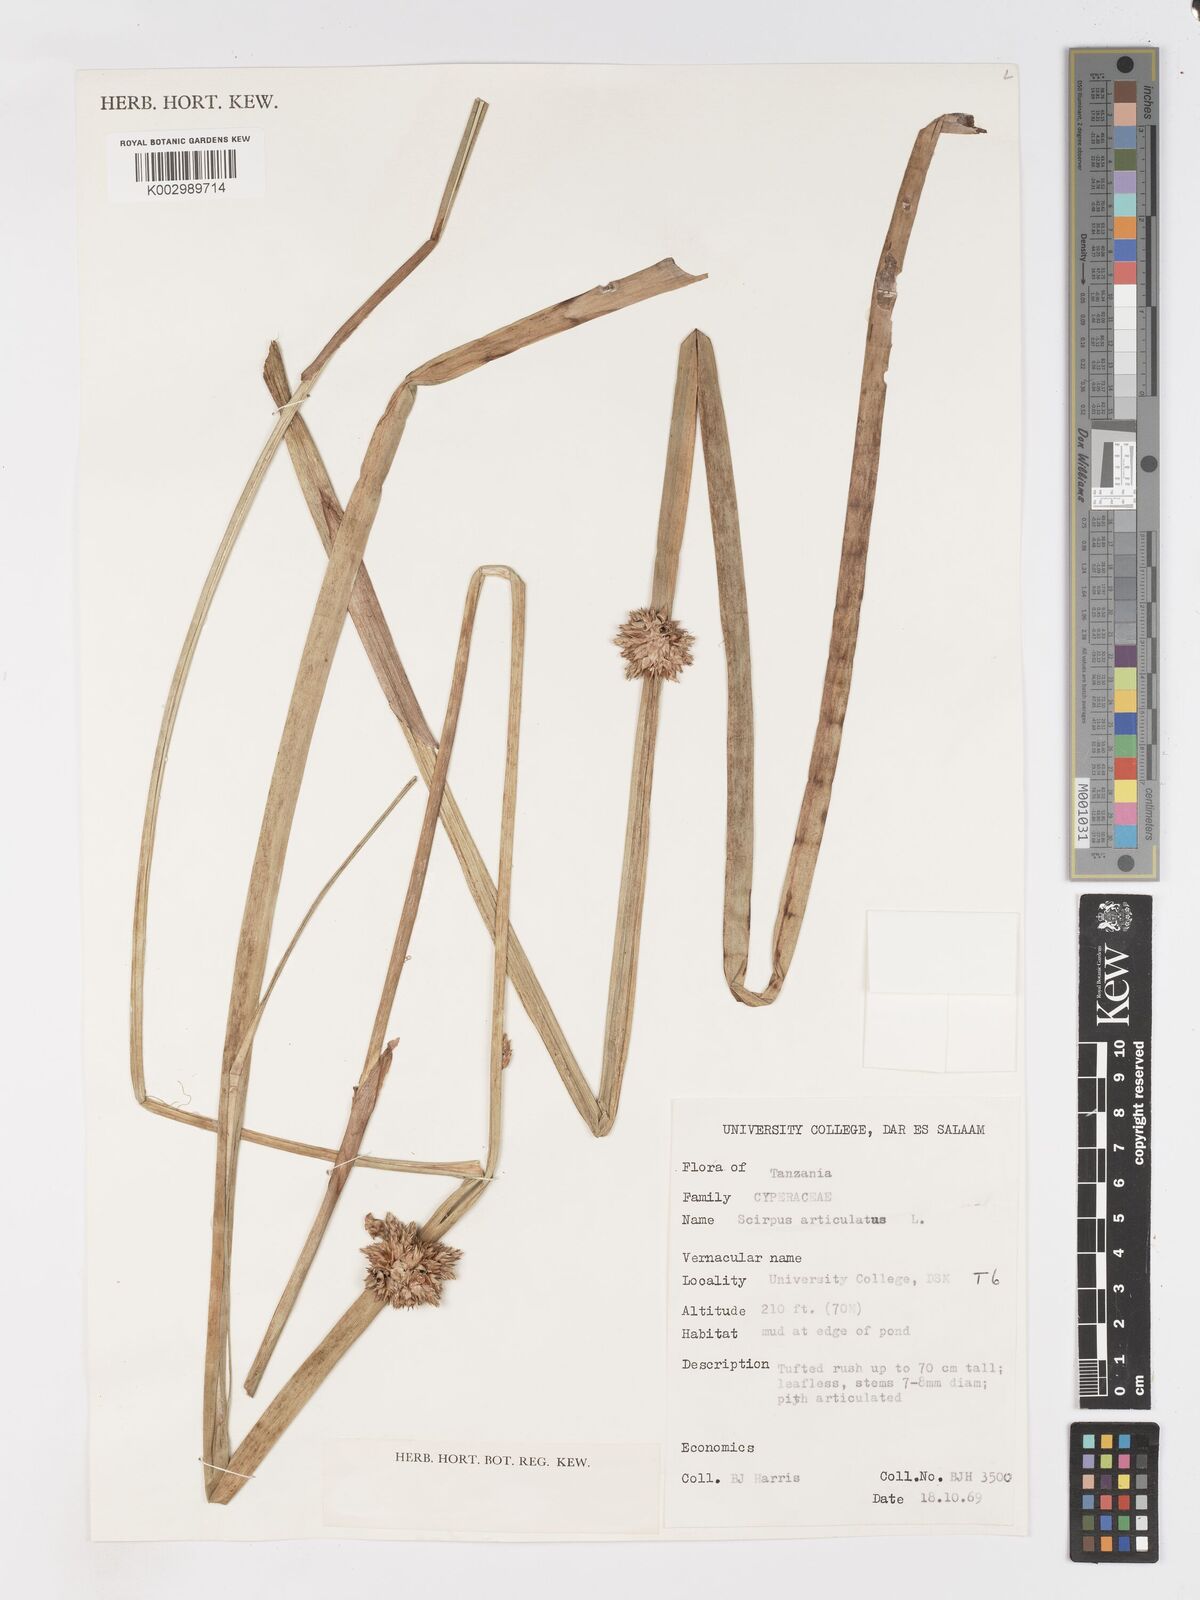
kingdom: Plantae
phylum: Tracheophyta
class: Liliopsida
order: Poales
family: Cyperaceae
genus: Schoenoplectiella
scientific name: Schoenoplectiella articulata
